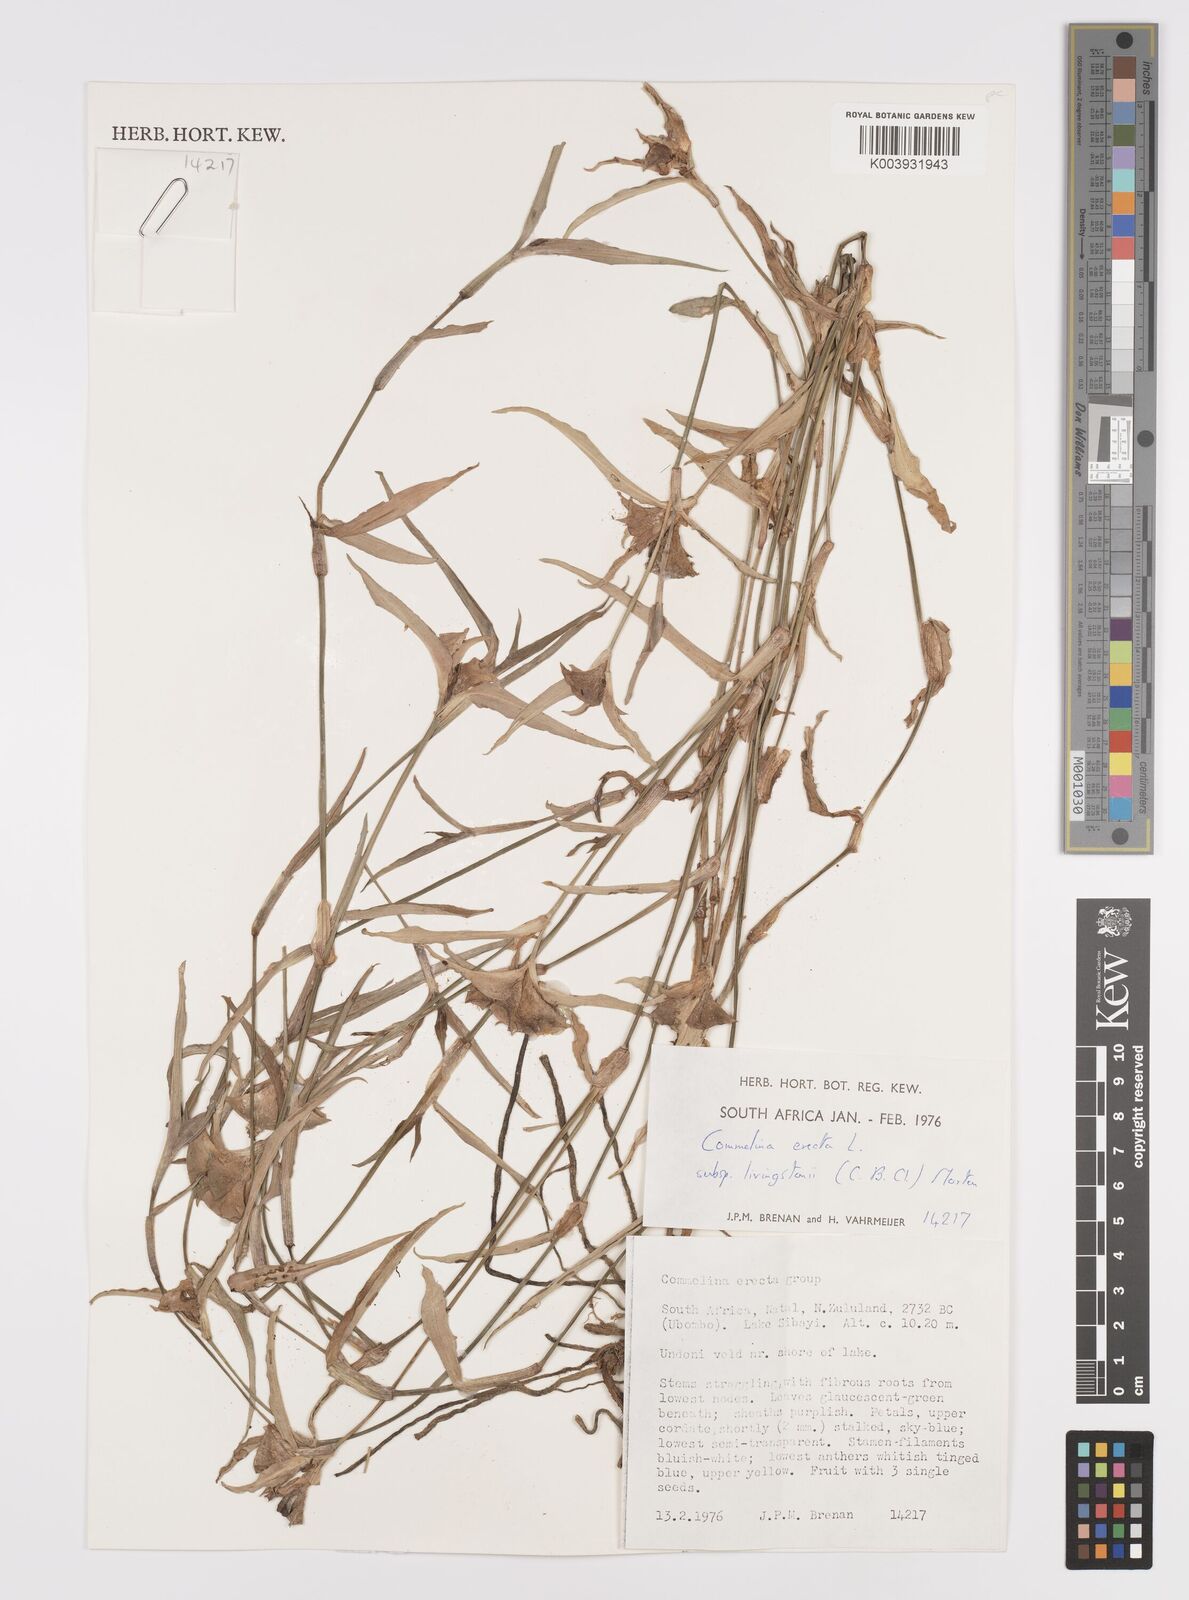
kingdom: Plantae
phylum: Tracheophyta
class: Liliopsida
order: Commelinales
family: Commelinaceae
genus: Commelina
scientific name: Commelina erecta
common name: Blousel blommetjie
